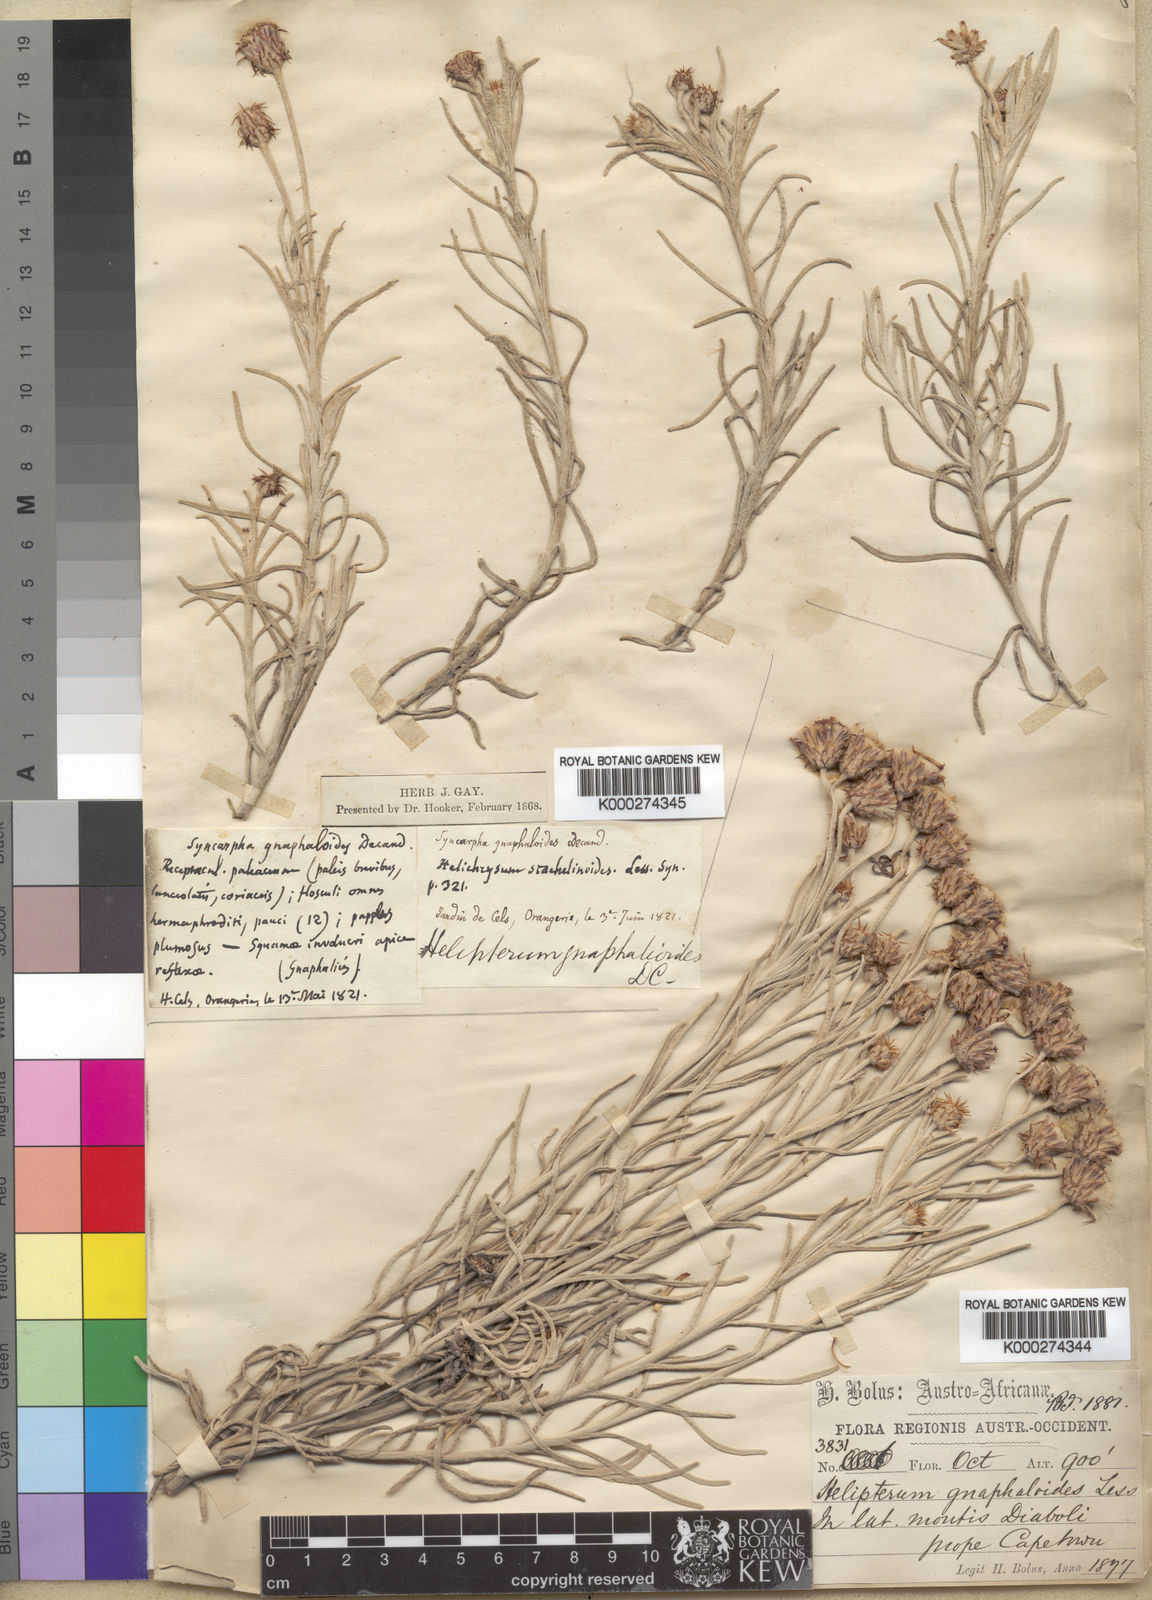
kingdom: Plantae
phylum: Tracheophyta
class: Magnoliopsida
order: Asterales
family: Asteraceae
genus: Syncarpha
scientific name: Syncarpha gnaphaloides
